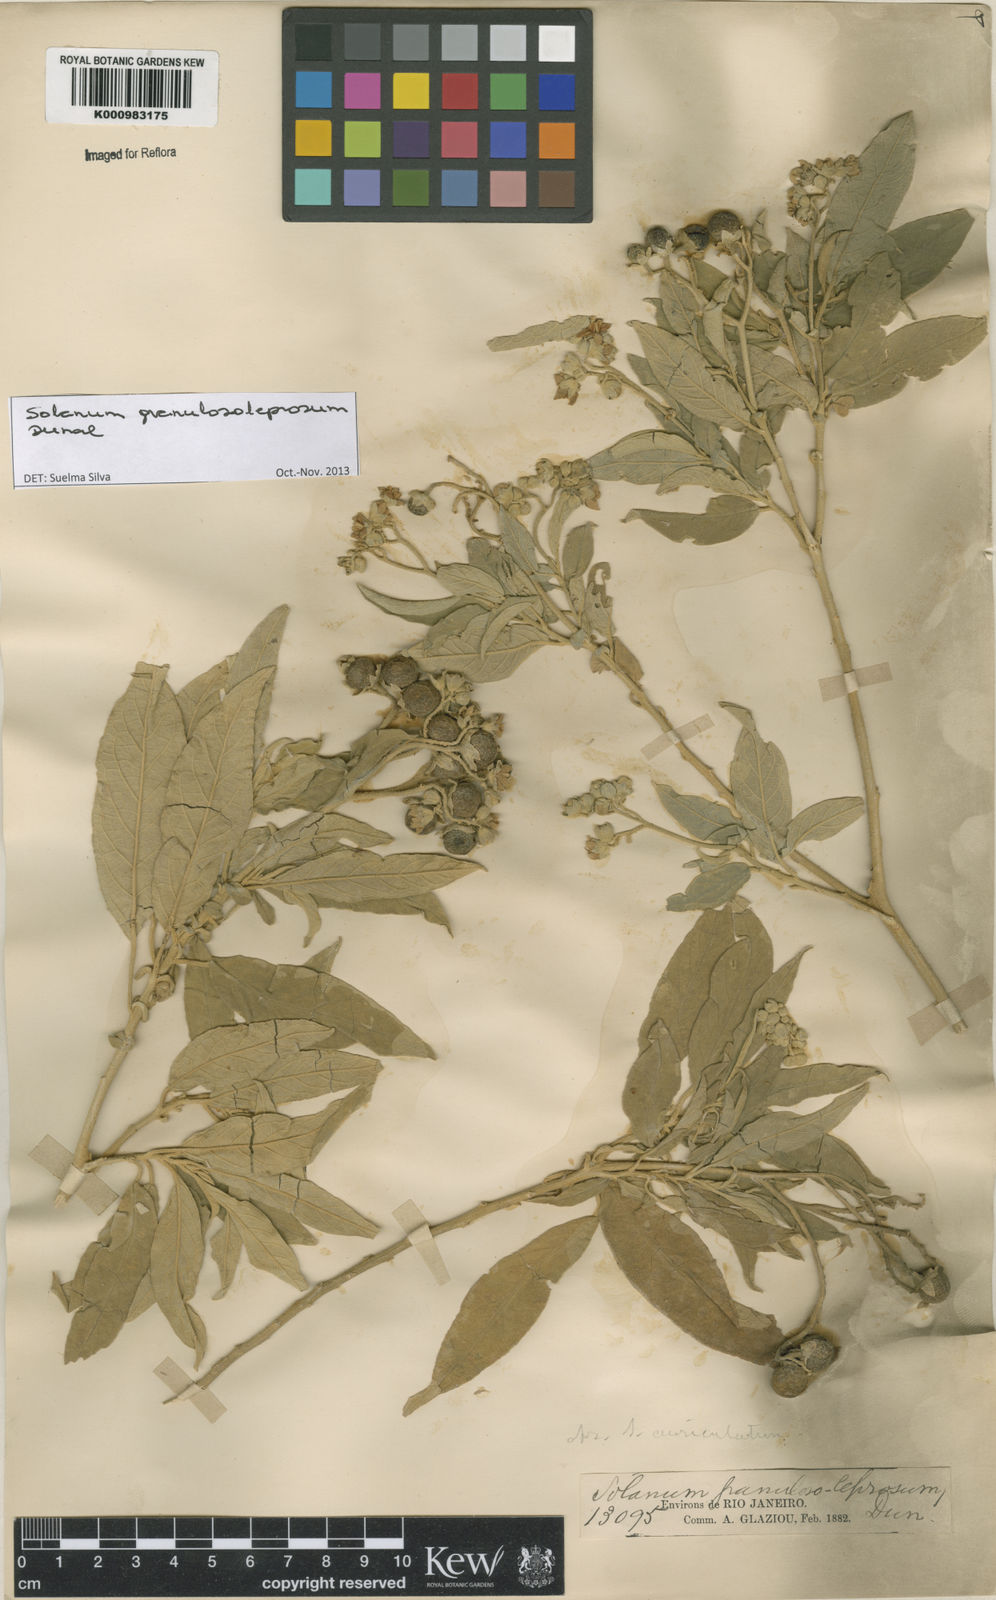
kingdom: Plantae
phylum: Tracheophyta
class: Magnoliopsida
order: Solanales
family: Solanaceae
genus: Solanum
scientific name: Solanum granulosoleprosum
